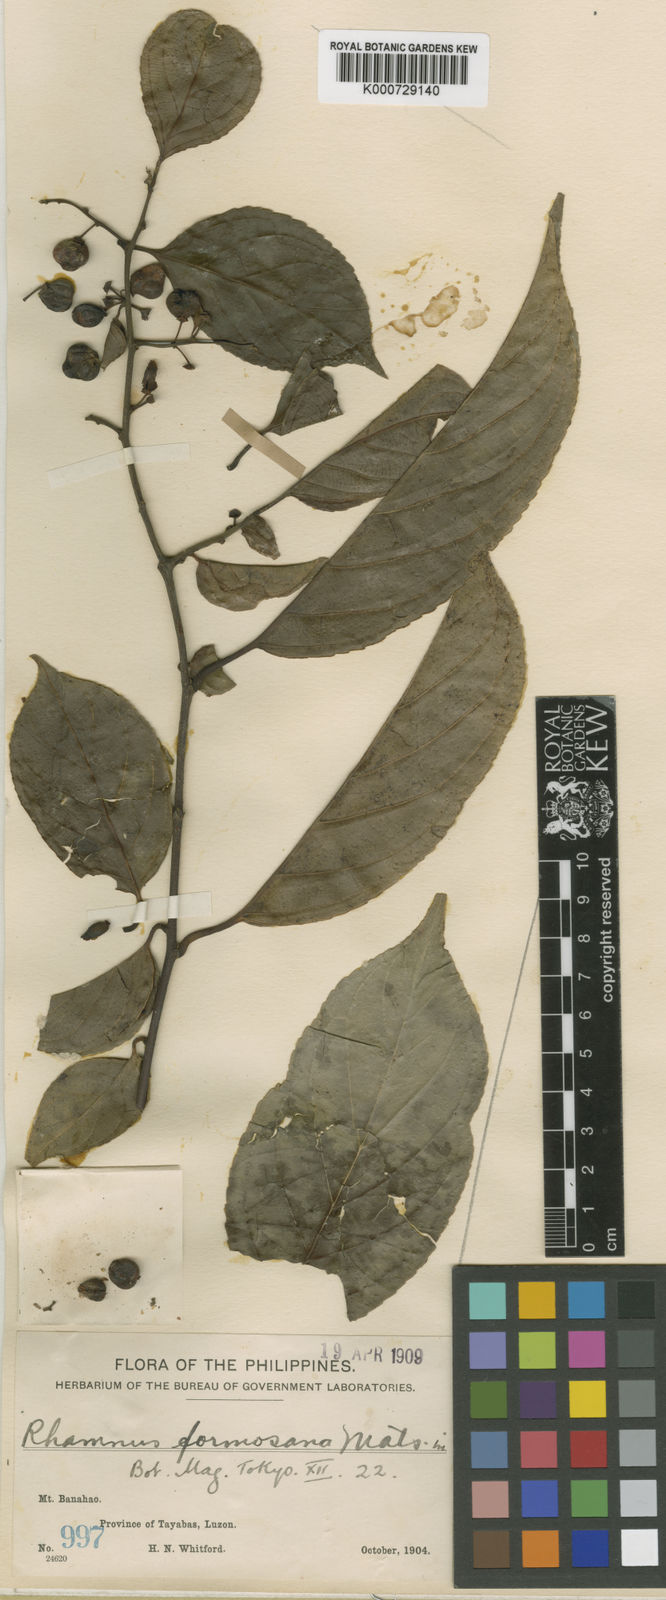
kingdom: Plantae
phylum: Tracheophyta
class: Magnoliopsida
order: Rosales
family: Rhamnaceae
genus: Rhamnus
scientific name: Rhamnus formosana
